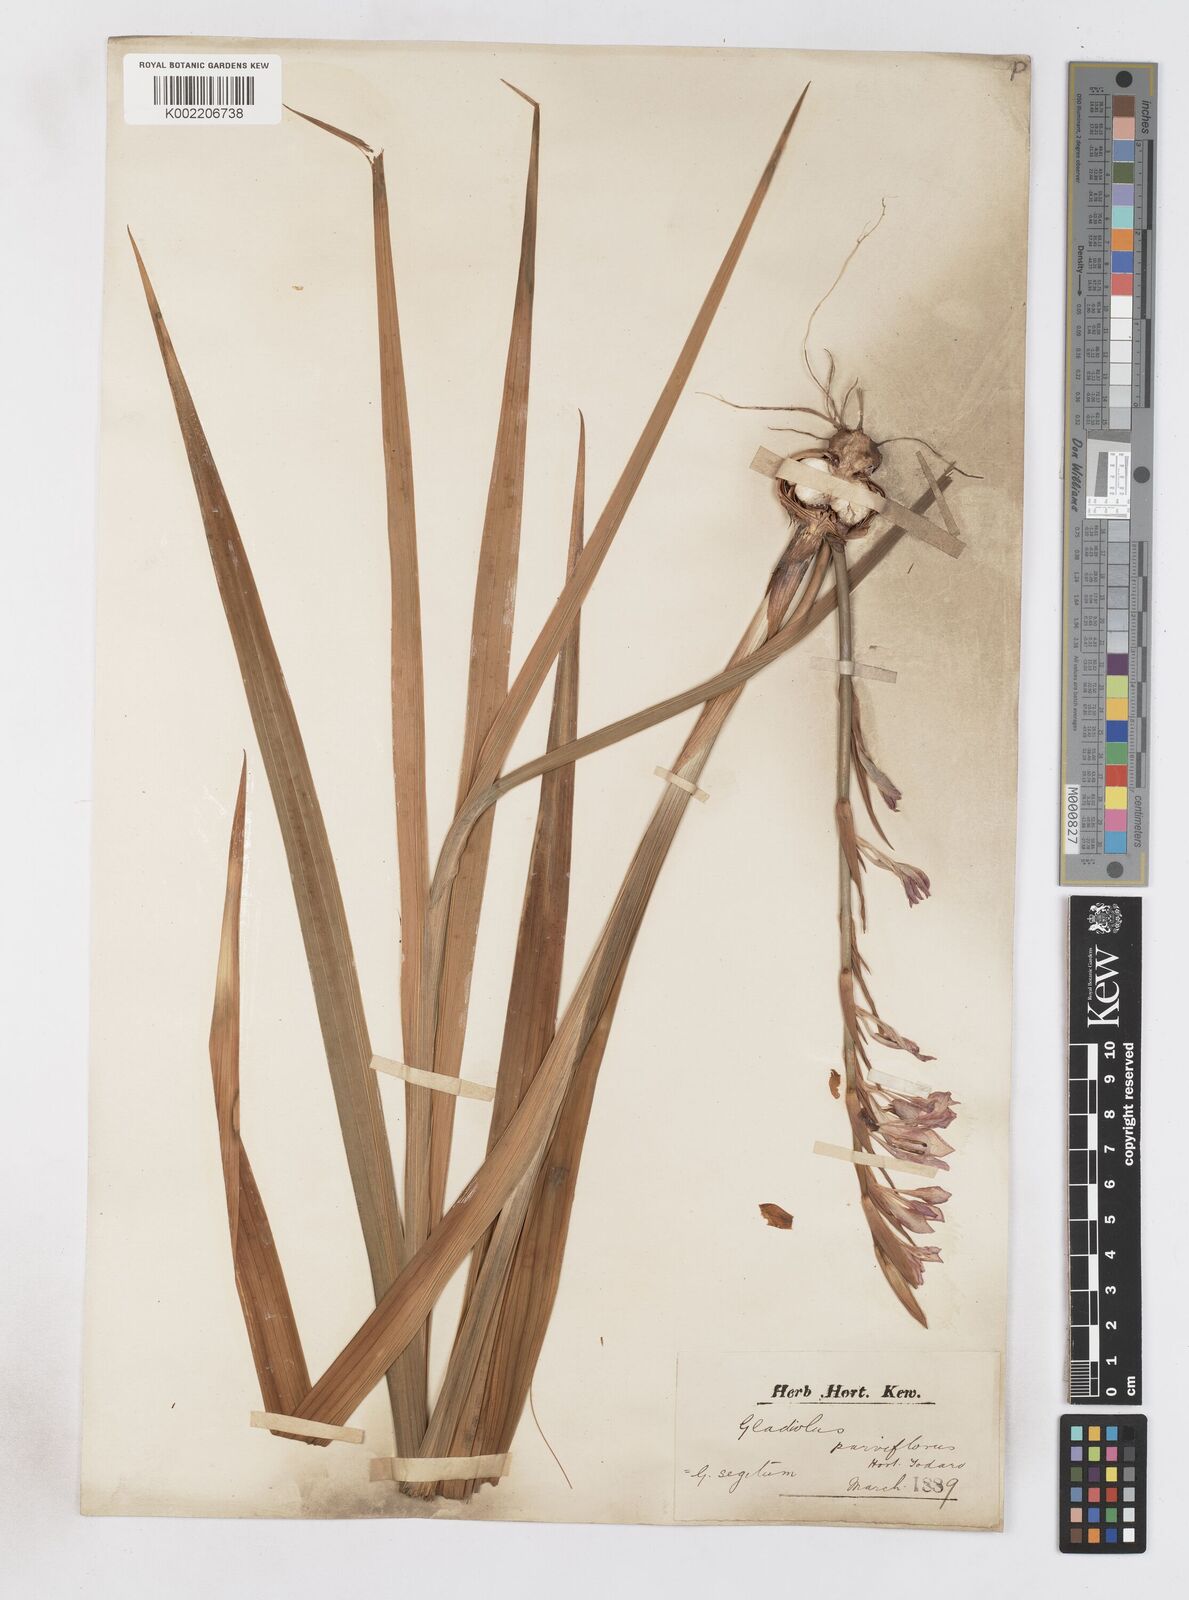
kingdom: Plantae
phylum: Tracheophyta
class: Liliopsida
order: Asparagales
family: Iridaceae
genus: Gladiolus
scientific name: Gladiolus italicus
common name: Field gladiolus
